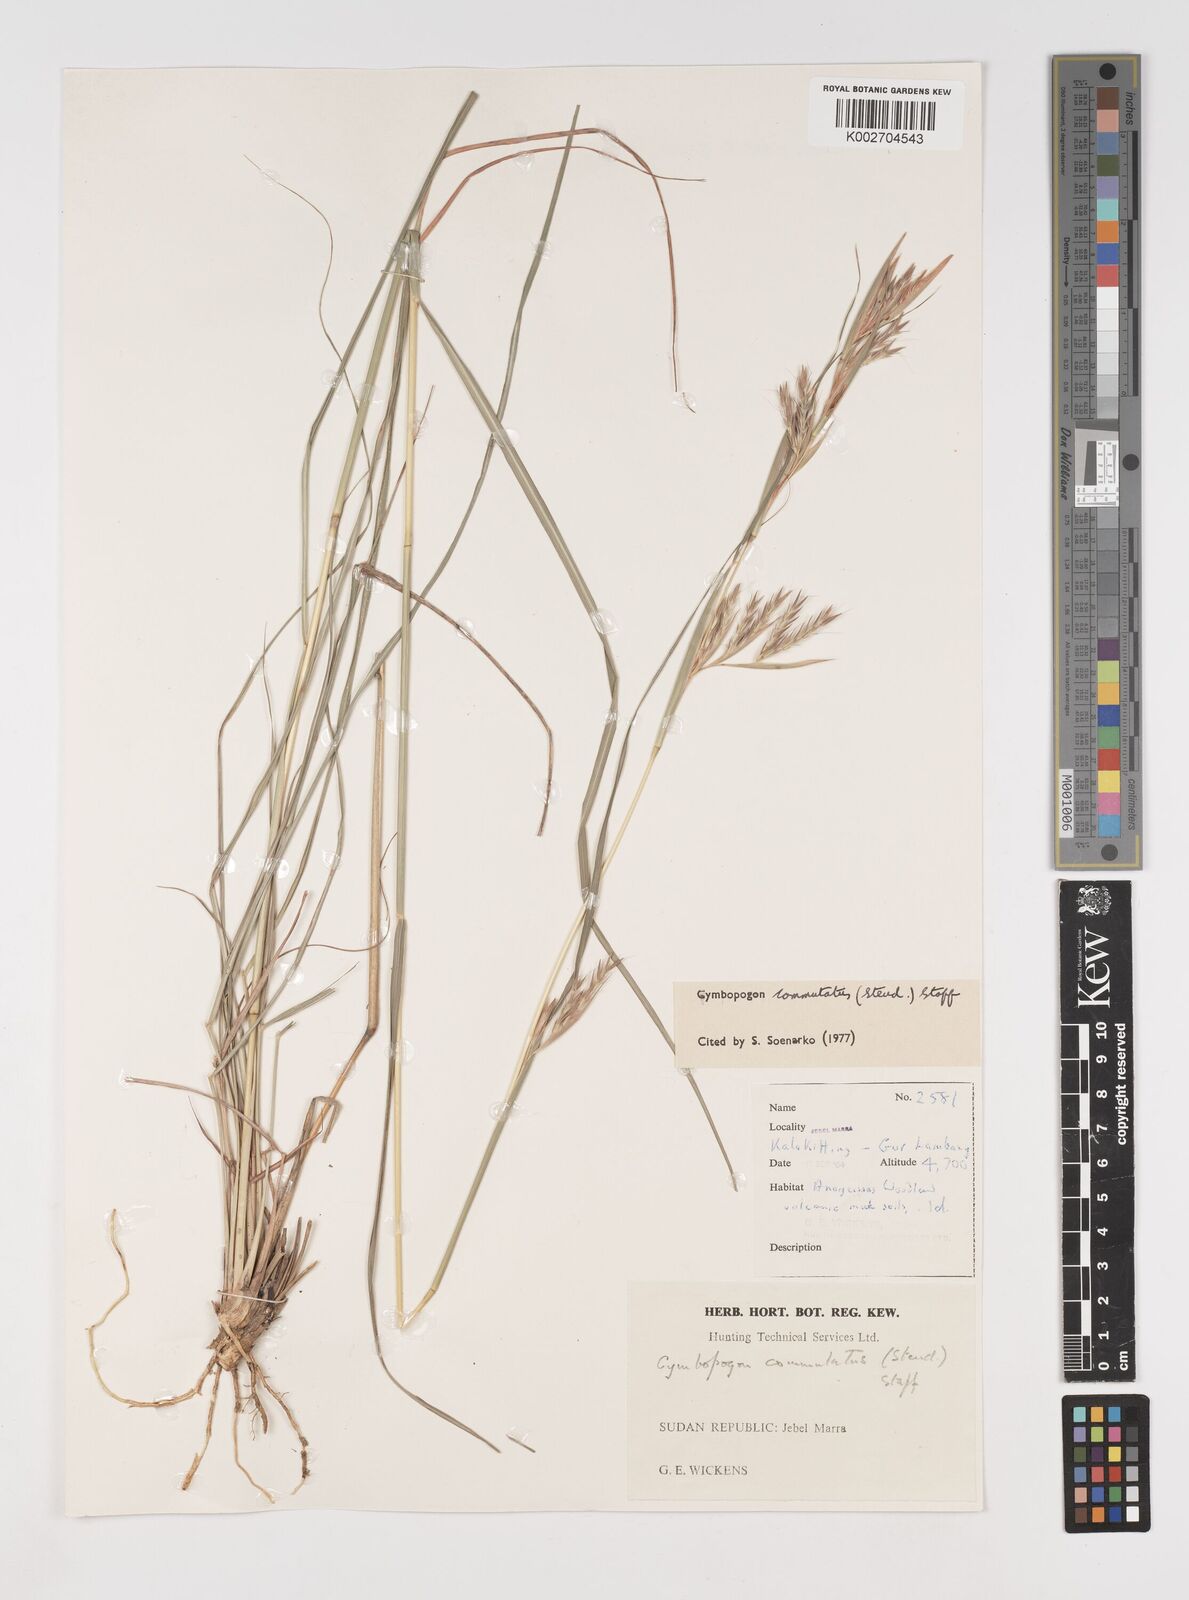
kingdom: Plantae
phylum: Tracheophyta
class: Liliopsida
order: Poales
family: Poaceae
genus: Cymbopogon
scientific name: Cymbopogon commutatus
